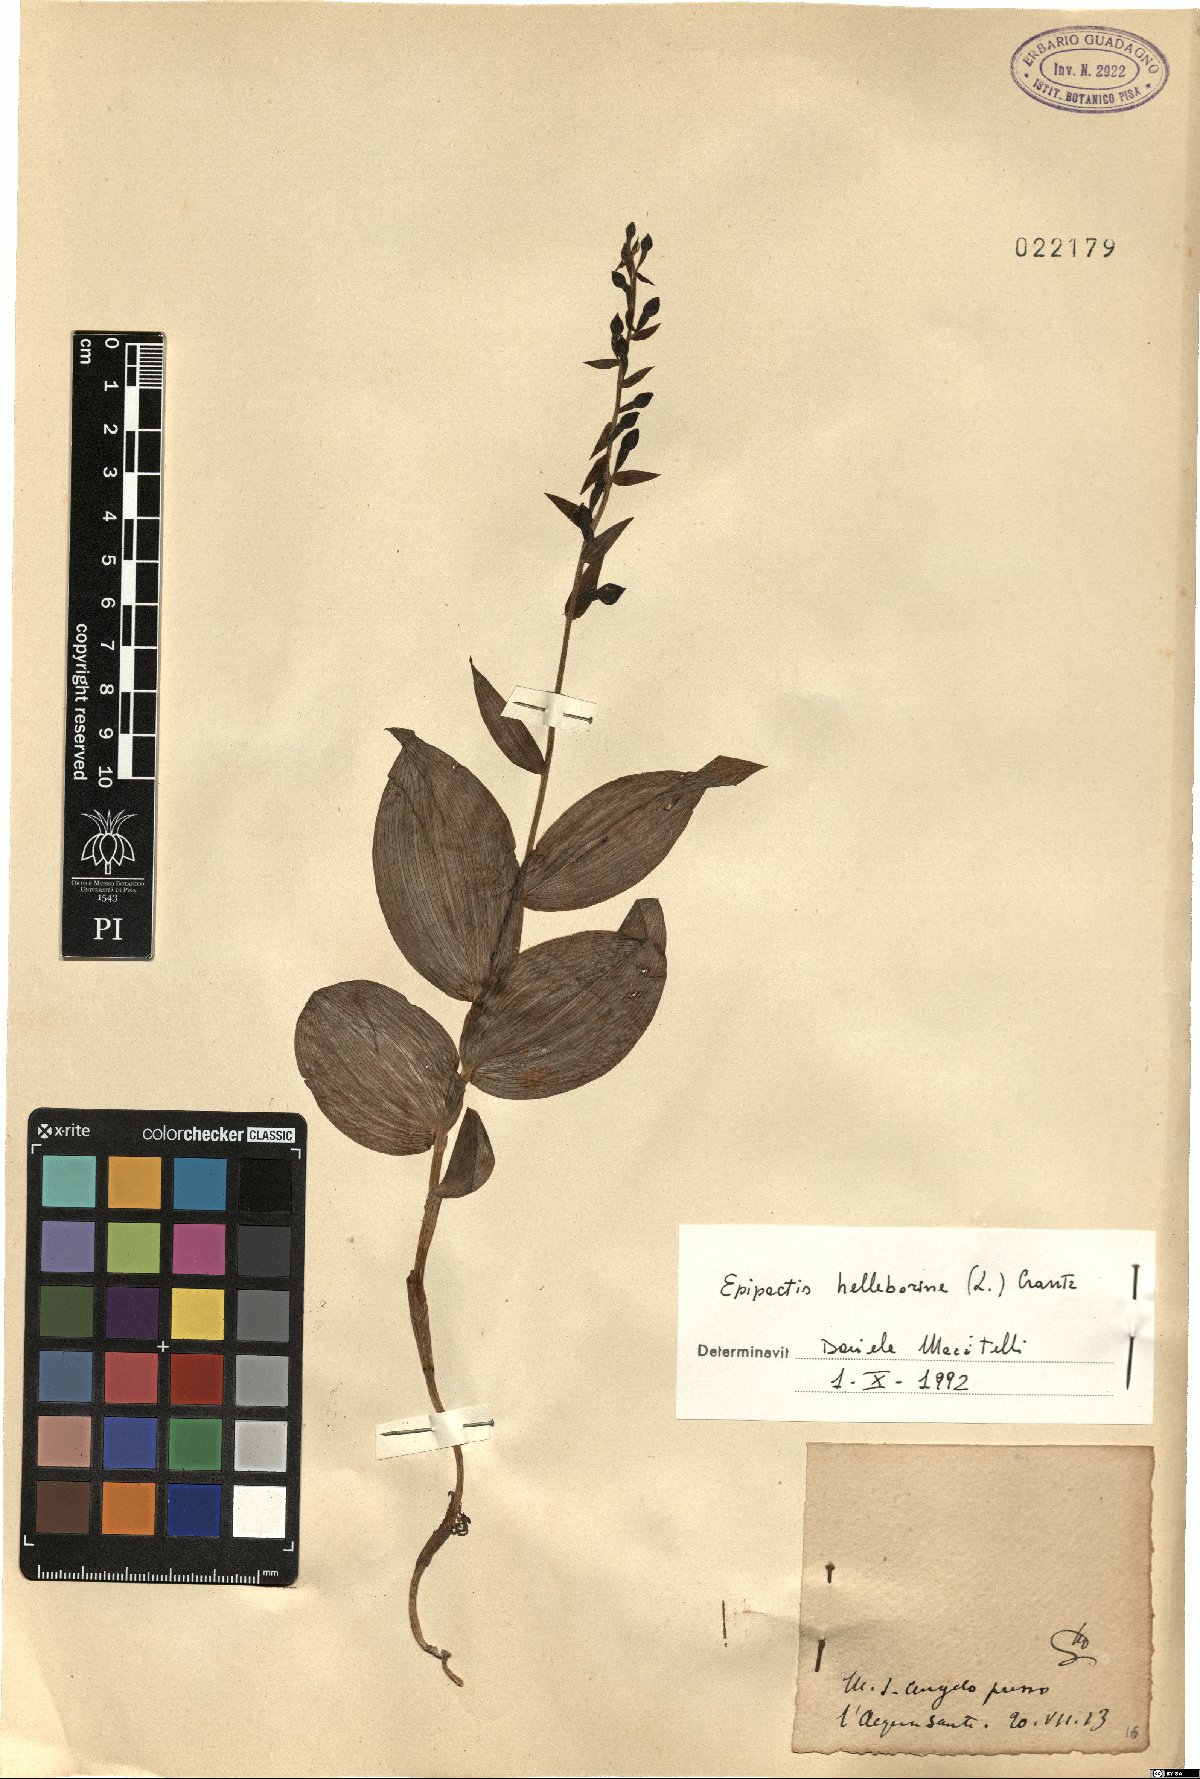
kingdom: Plantae
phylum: Tracheophyta
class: Liliopsida
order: Asparagales
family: Orchidaceae
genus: Epipactis
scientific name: Epipactis helleborine
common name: Broad-leaved helleborine
